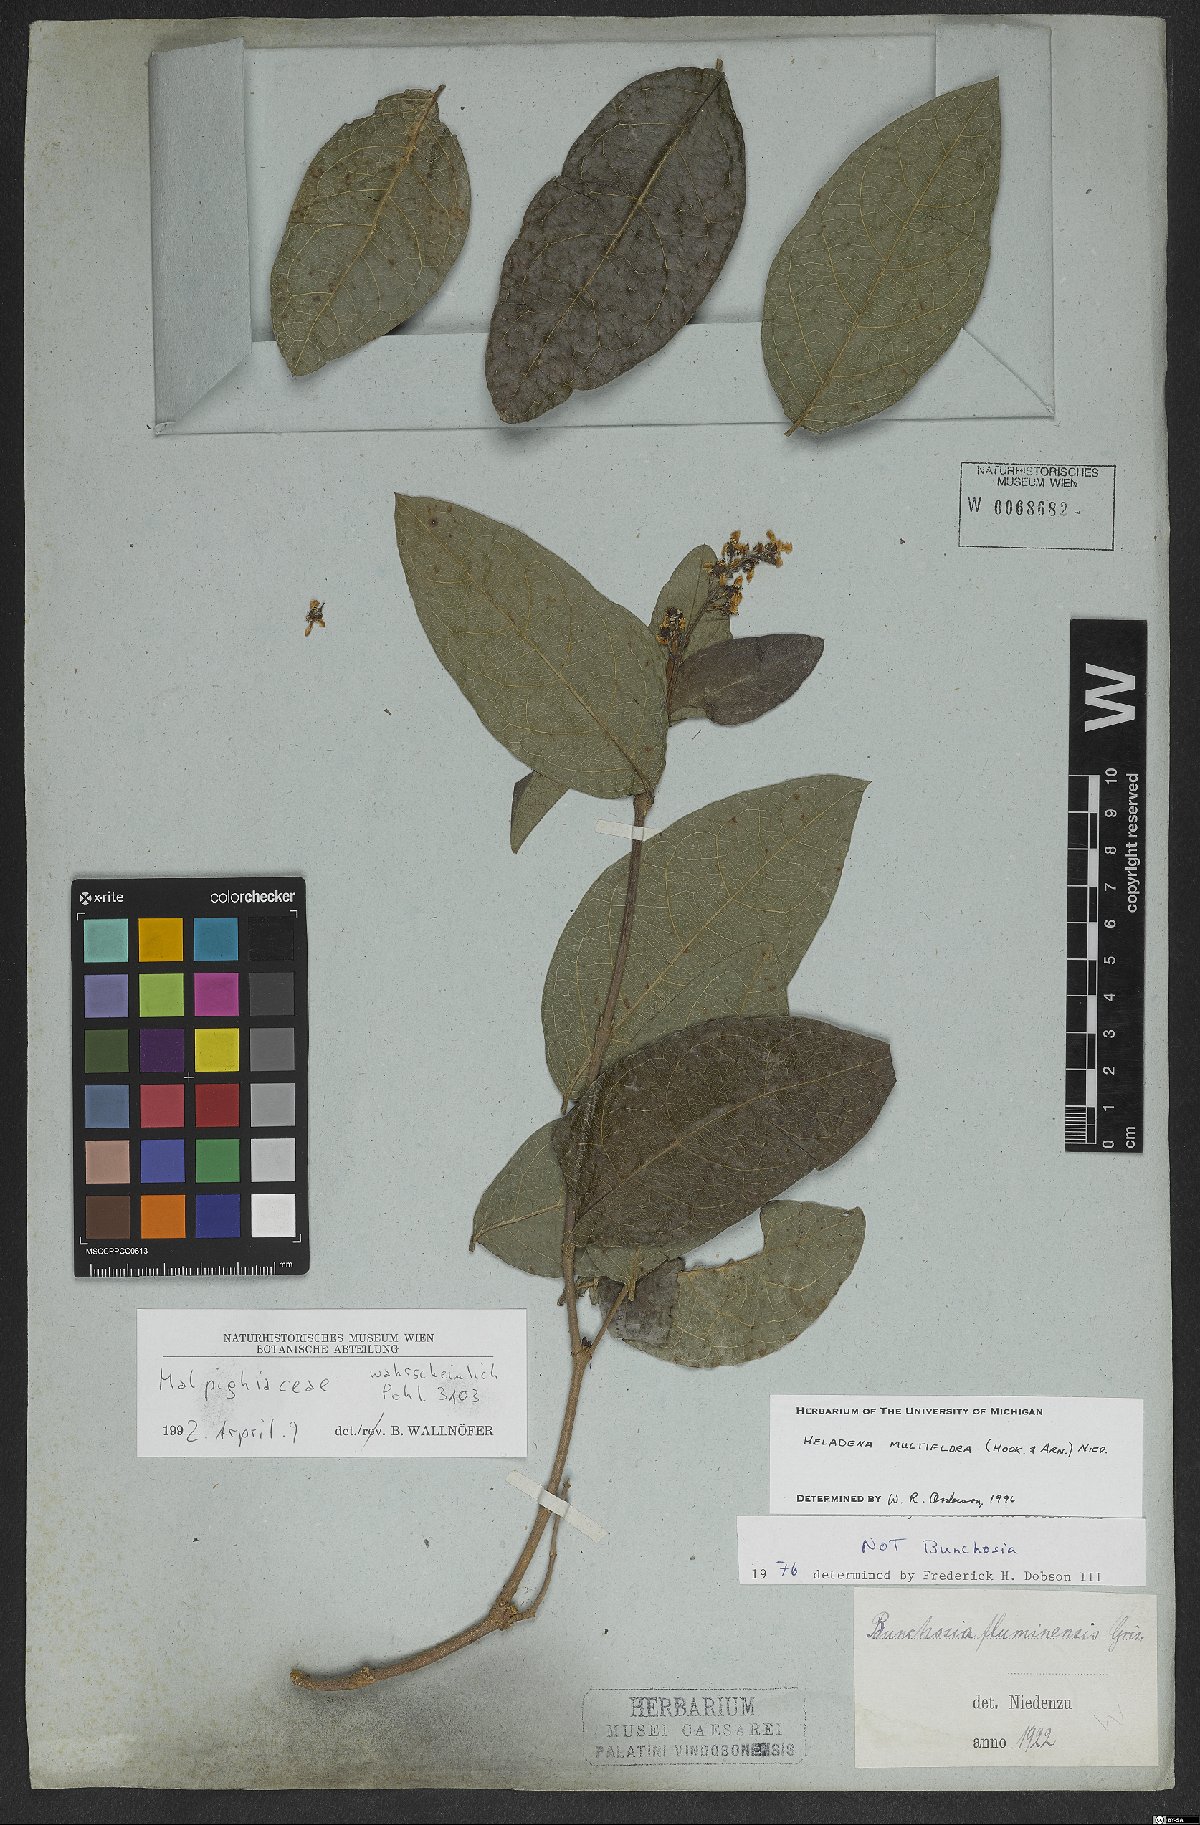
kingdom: Plantae
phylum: Tracheophyta
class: Magnoliopsida
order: Malpighiales
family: Malpighiaceae
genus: Heladena
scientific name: Heladena multiflora
